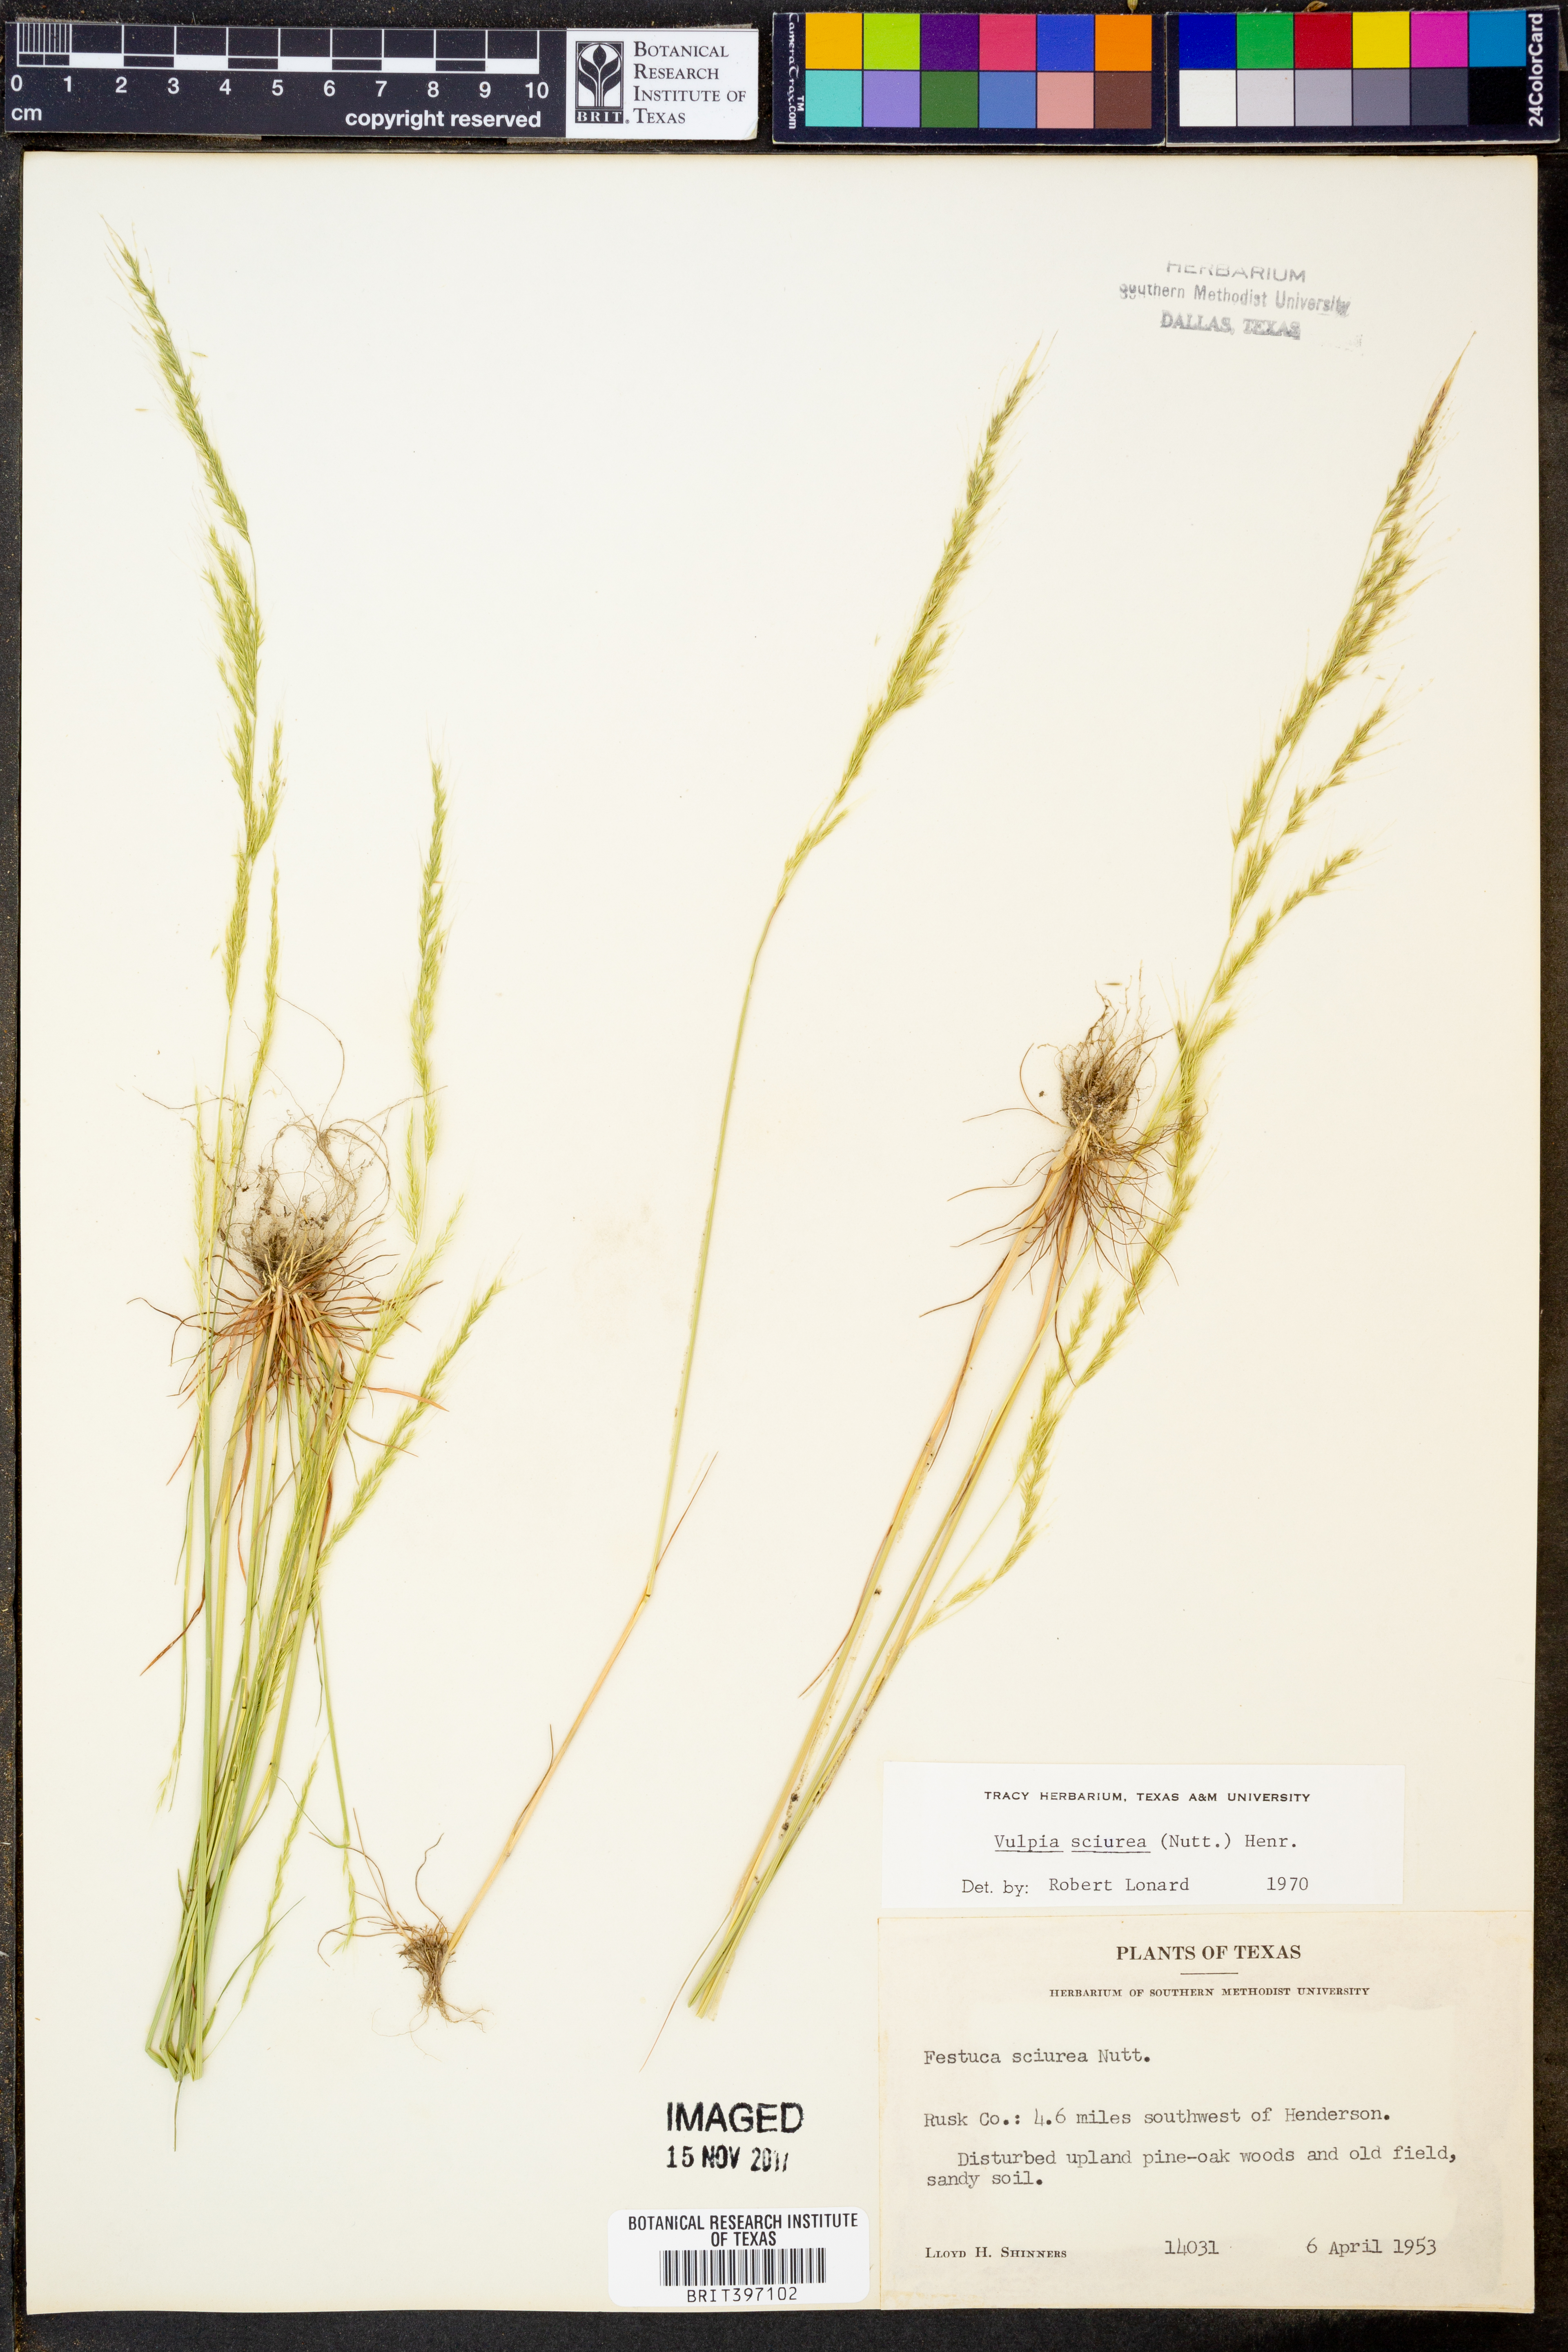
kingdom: Plantae
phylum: Tracheophyta
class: Liliopsida
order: Poales
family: Poaceae
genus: Festuca
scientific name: Festuca sciurea
